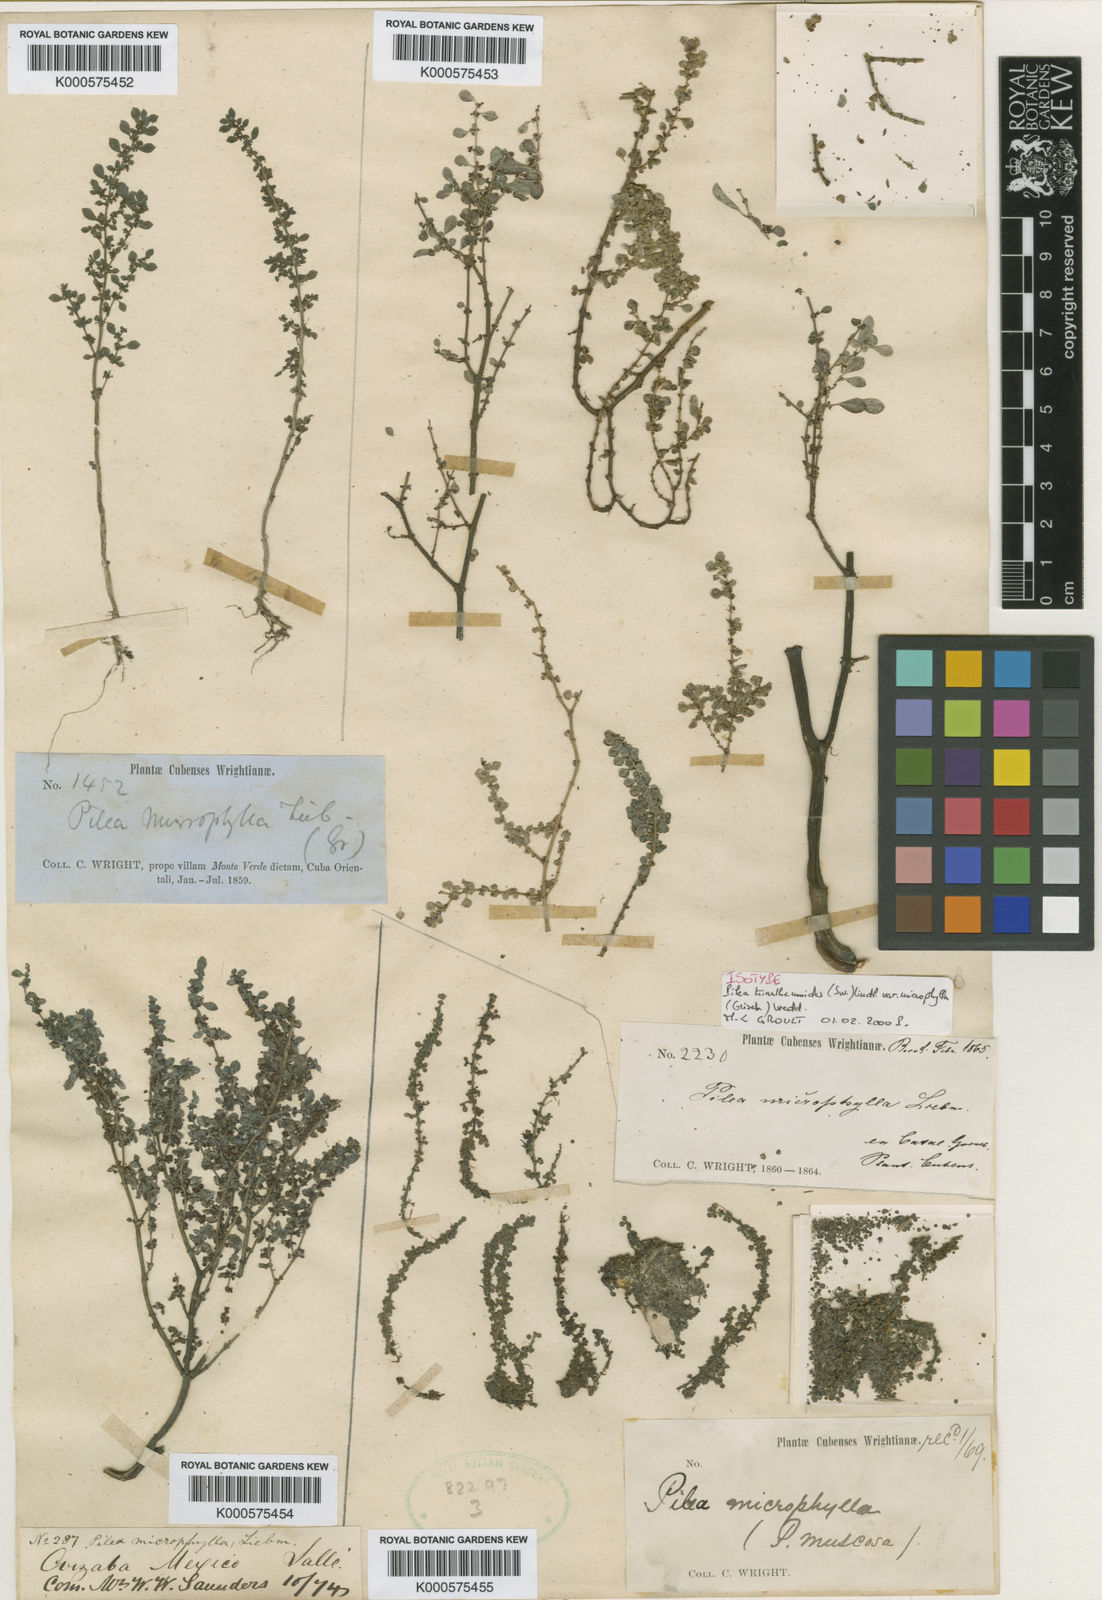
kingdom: Plantae
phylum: Tracheophyta
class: Magnoliopsida
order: Rosales
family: Urticaceae
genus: Pilea
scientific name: Pilea trianthemoides
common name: Artillery plant
